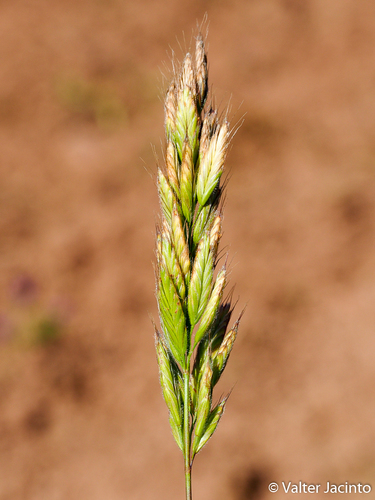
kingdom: Plantae
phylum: Tracheophyta
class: Liliopsida
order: Poales
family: Poaceae
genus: Bromus
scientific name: Bromus hordeaceus
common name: Soft brome
